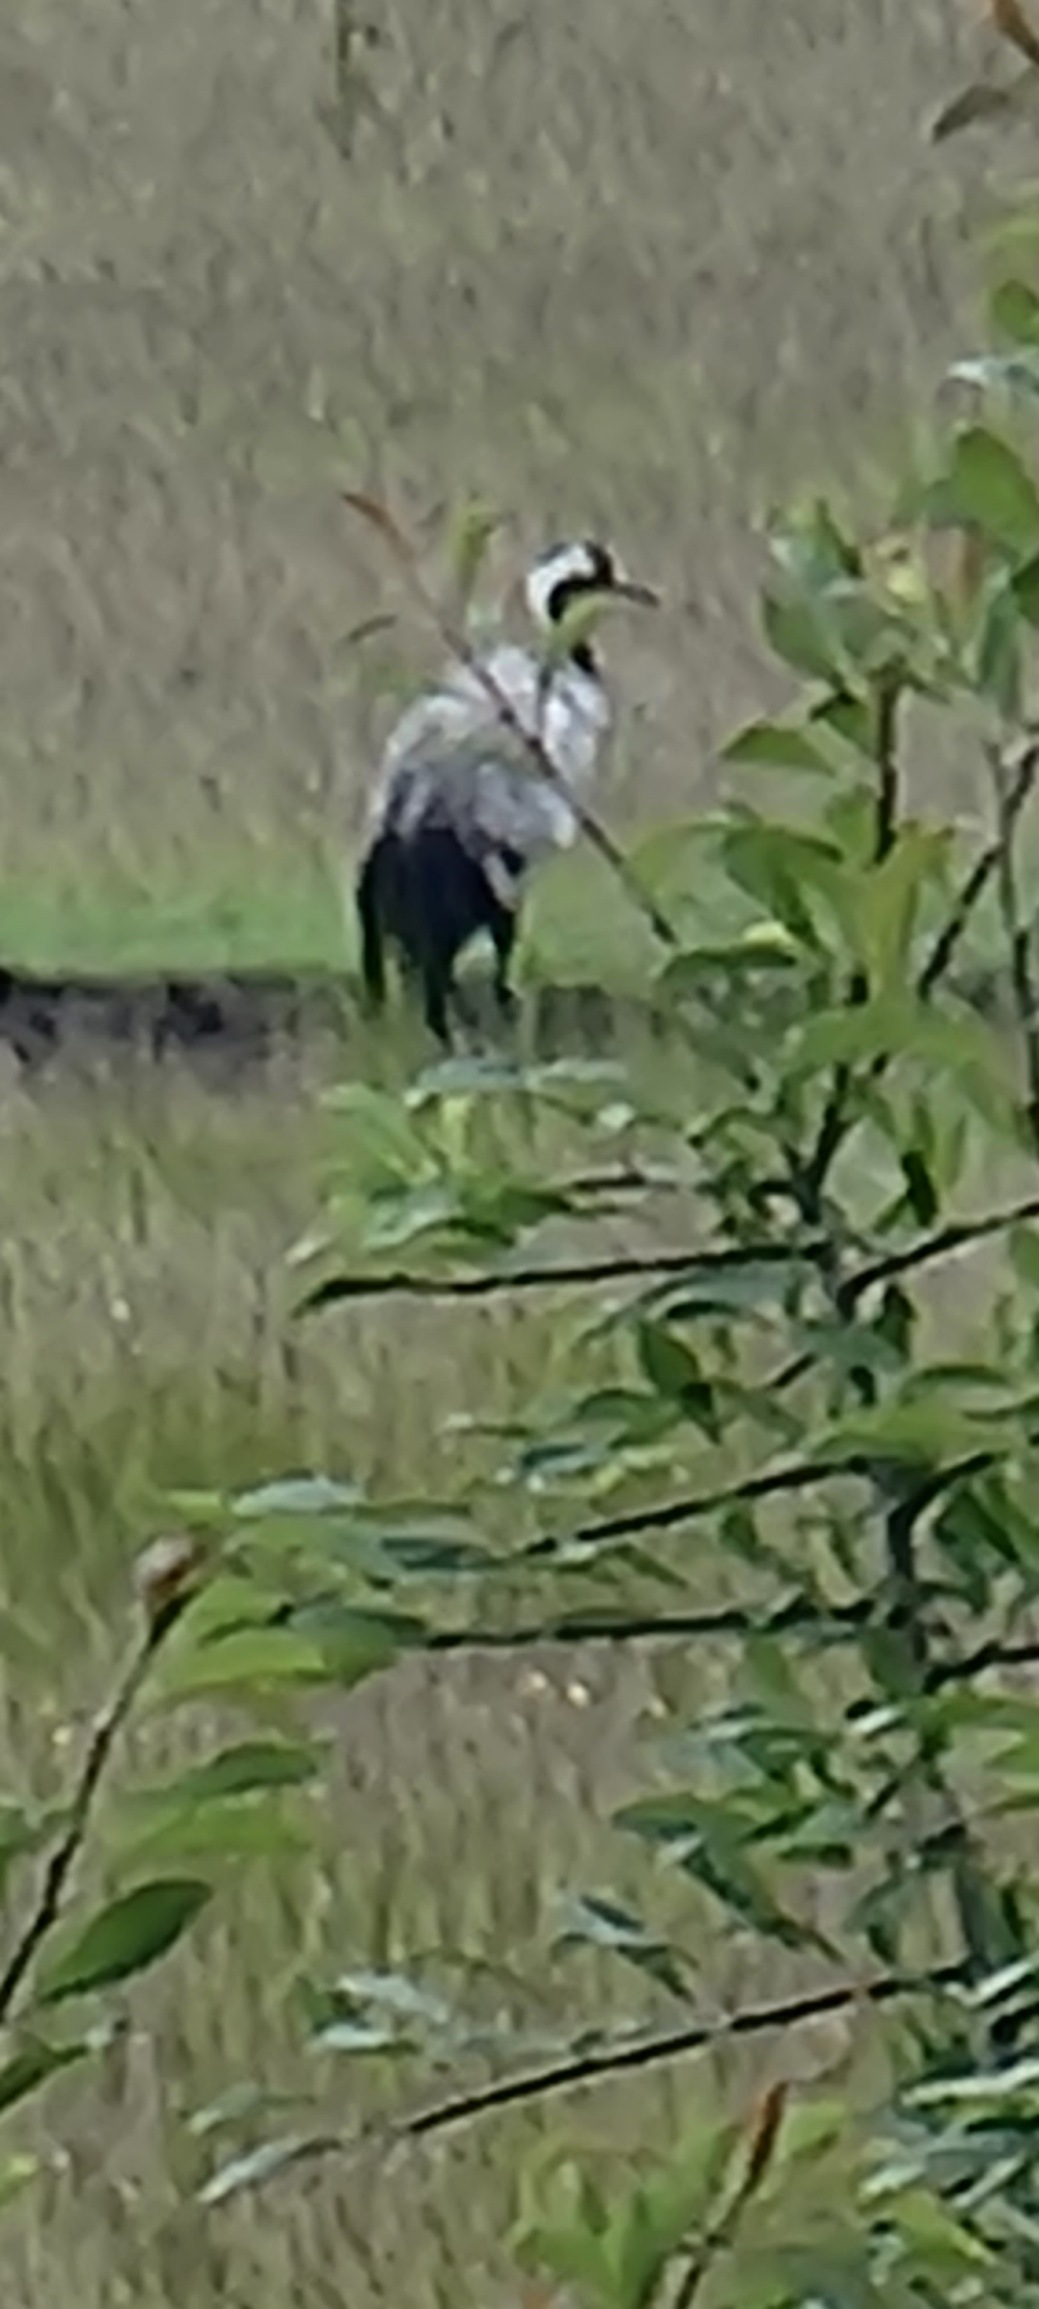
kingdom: Animalia
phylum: Chordata
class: Aves
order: Gruiformes
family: Gruidae
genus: Grus
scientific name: Grus grus
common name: Trane
